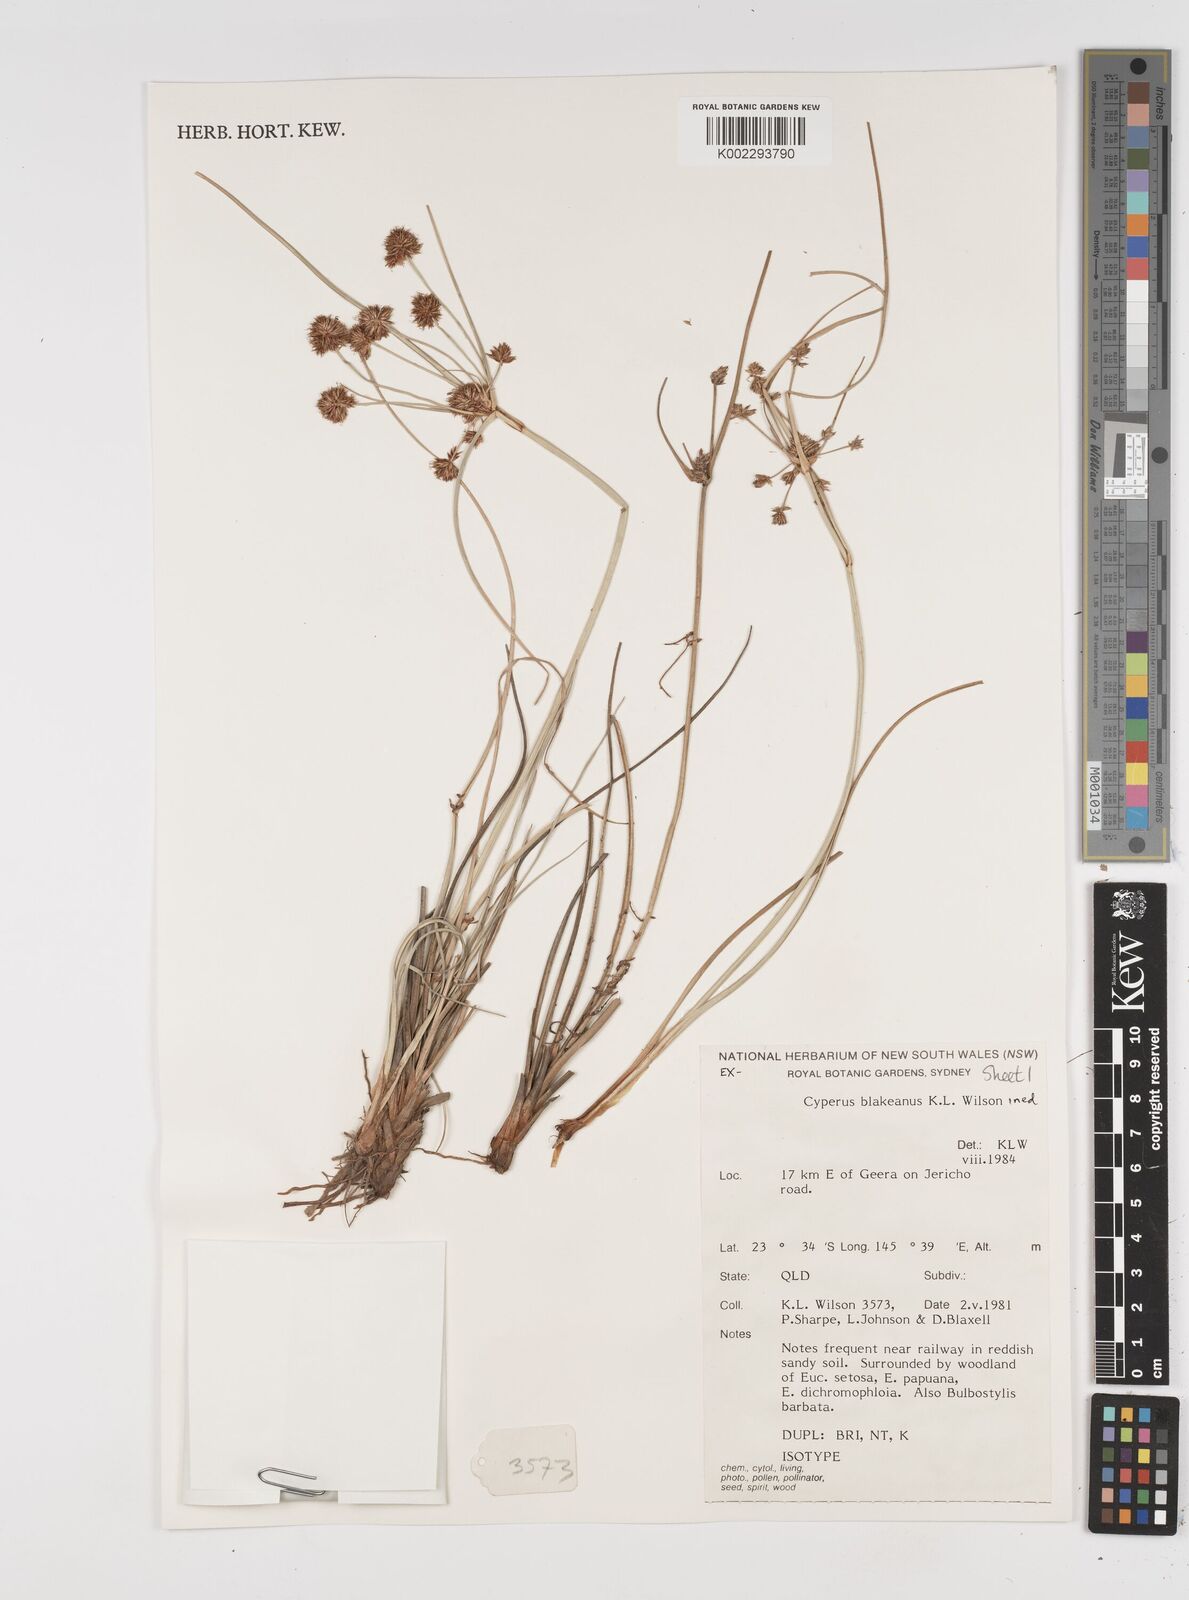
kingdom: Plantae
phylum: Tracheophyta
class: Liliopsida
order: Poales
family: Cyperaceae
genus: Cyperus
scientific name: Cyperus blakeanus
